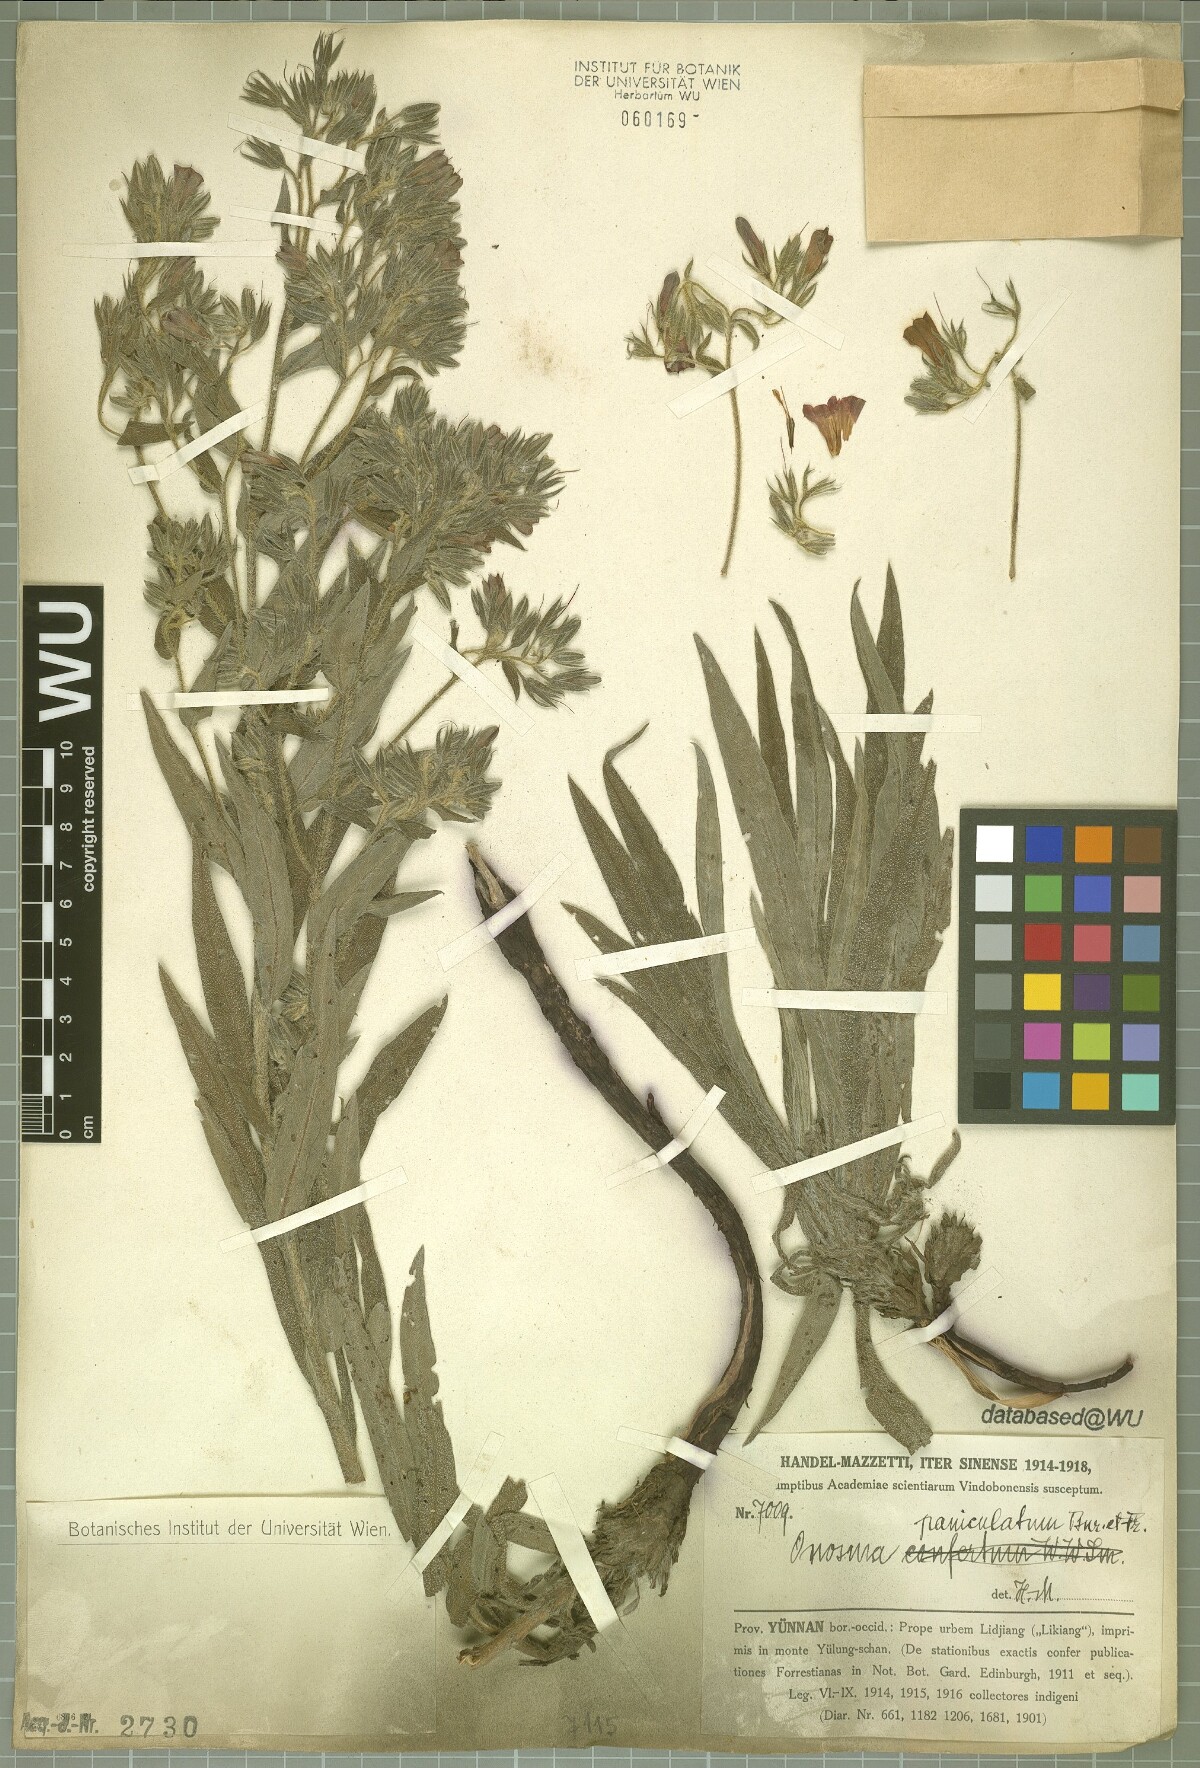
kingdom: Plantae
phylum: Tracheophyta
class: Magnoliopsida
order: Boraginales
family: Boraginaceae
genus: Maharanga
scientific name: Maharanga paniculata
